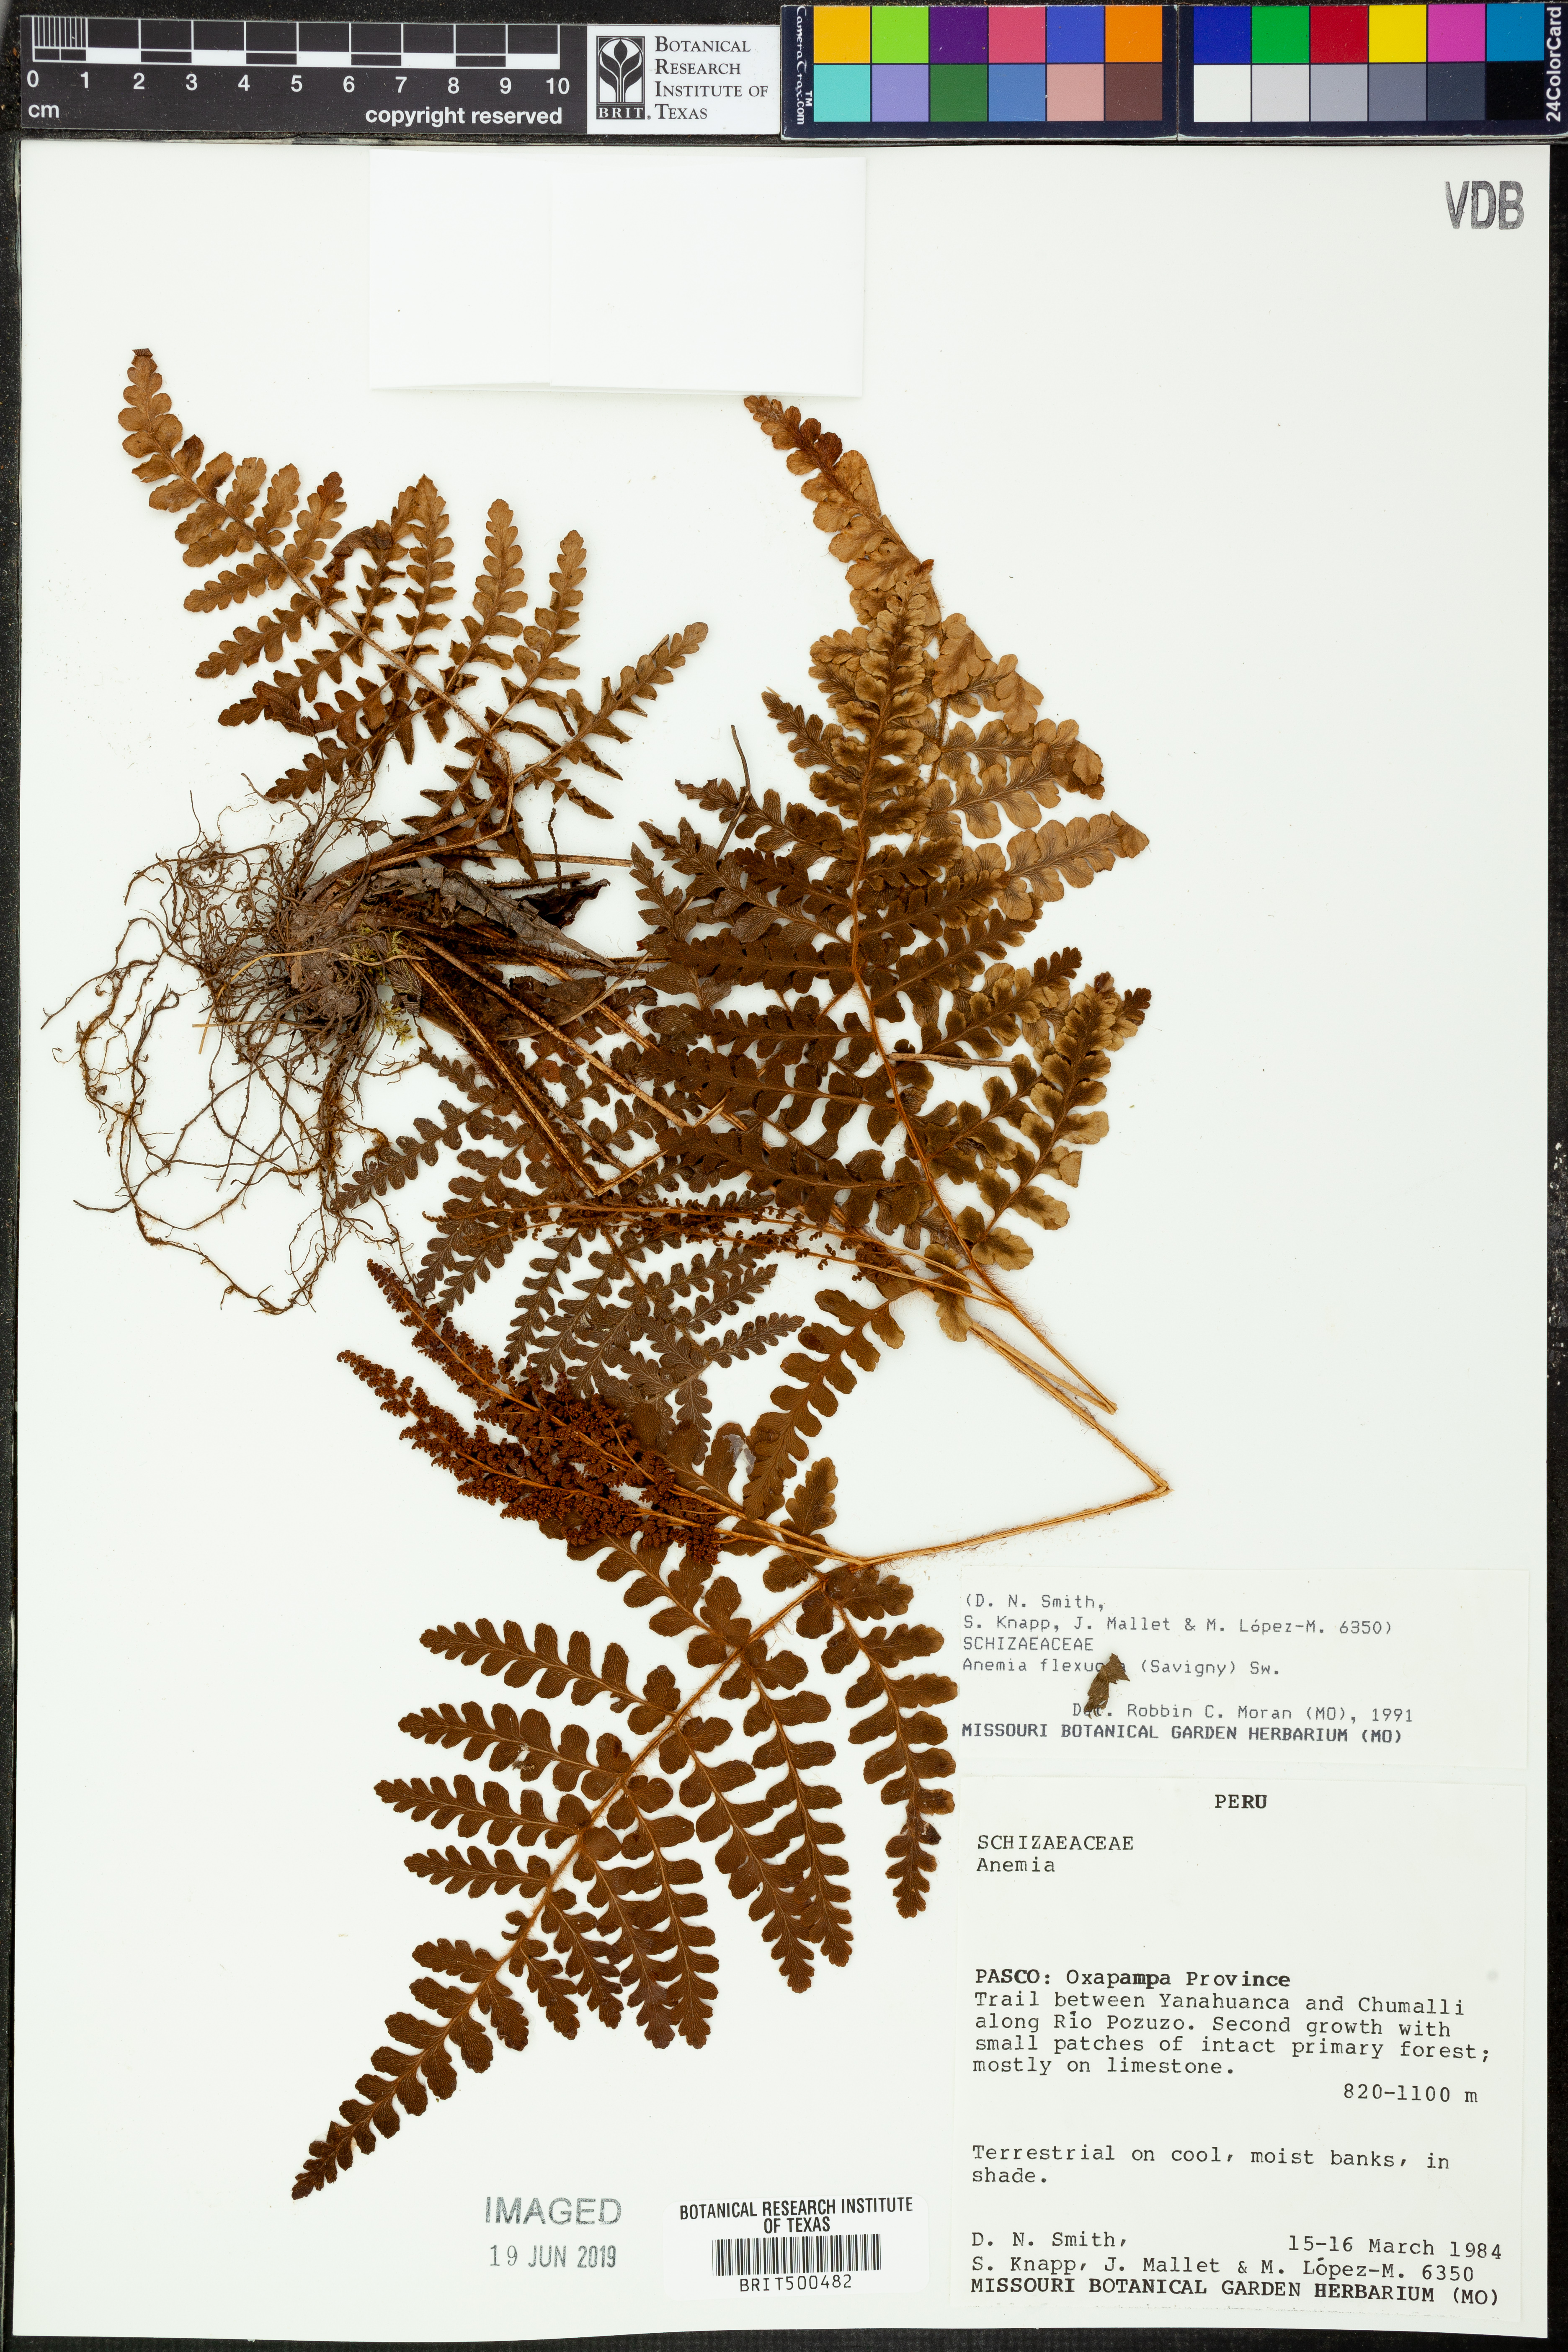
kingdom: Plantae
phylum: Tracheophyta
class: Polypodiopsida
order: Schizaeales
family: Anemiaceae
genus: Anemia
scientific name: Anemia flexuosa
